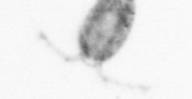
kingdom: Animalia
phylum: Arthropoda
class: Copepoda
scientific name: Copepoda
